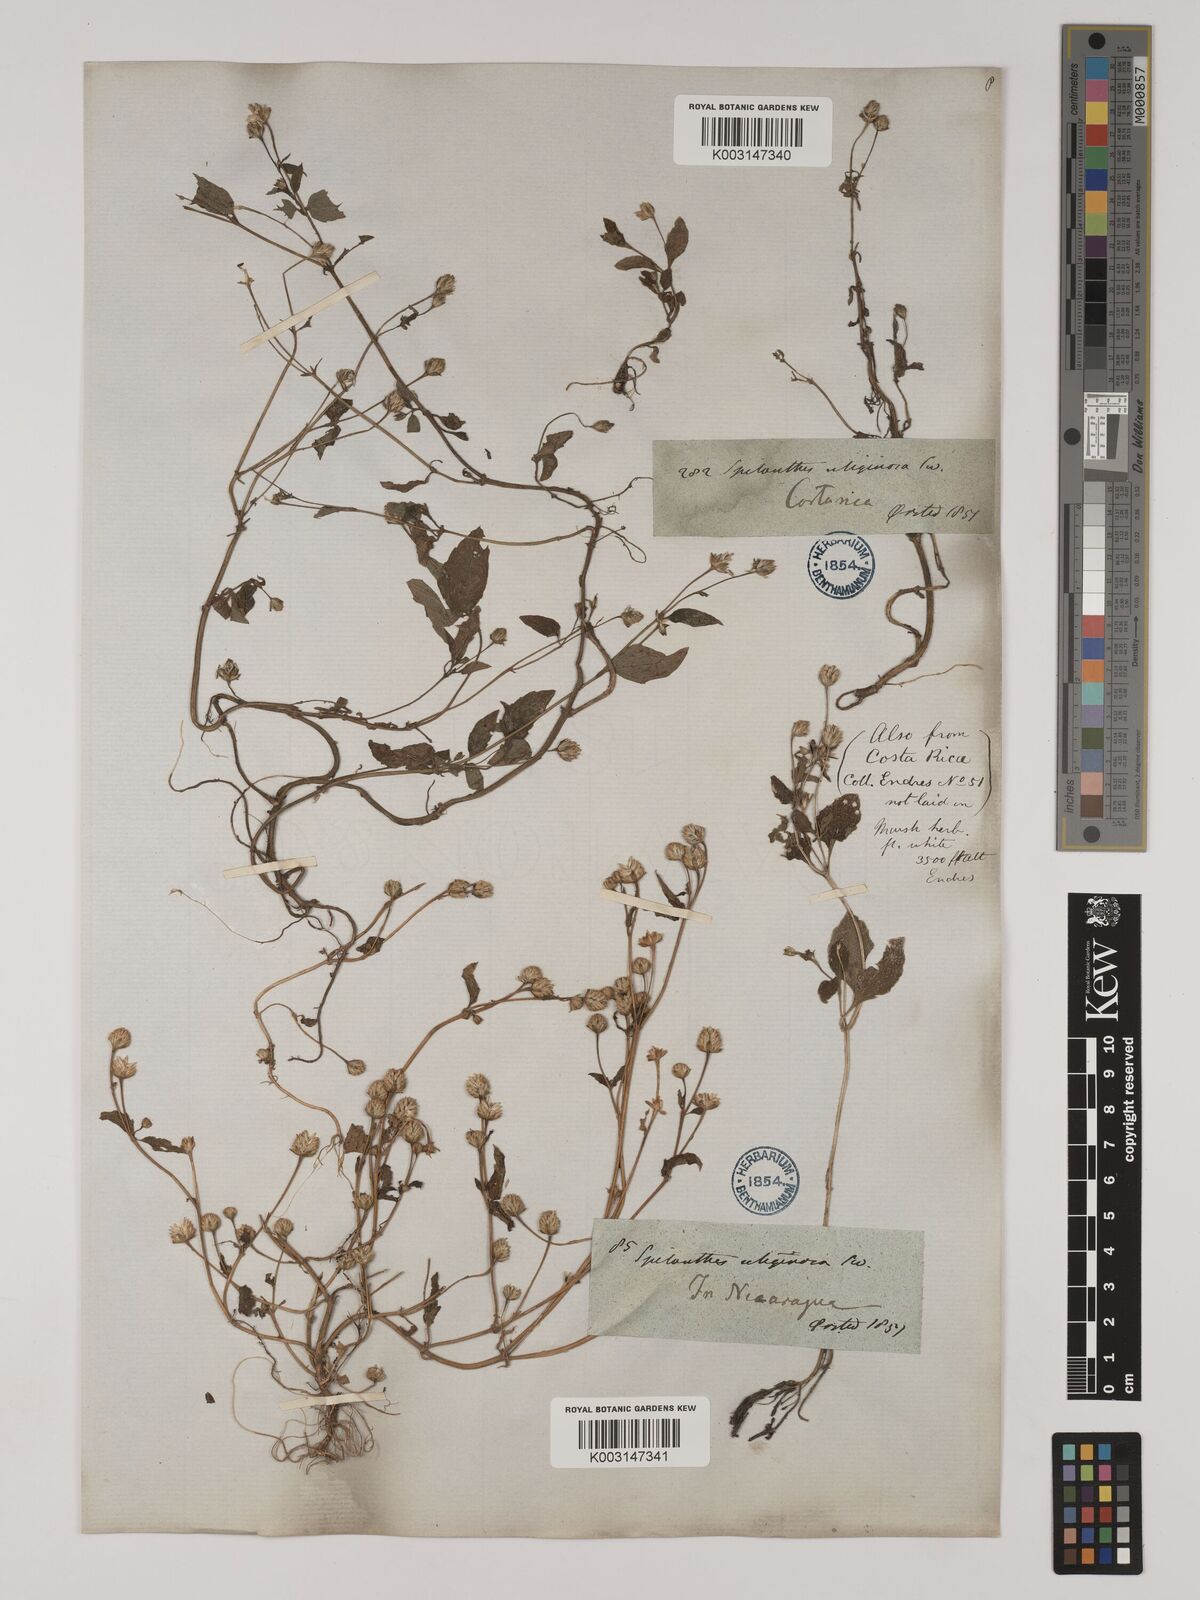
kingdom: Plantae
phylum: Tracheophyta
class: Magnoliopsida
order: Asterales
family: Asteraceae
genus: Acmella
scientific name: Acmella radicans
